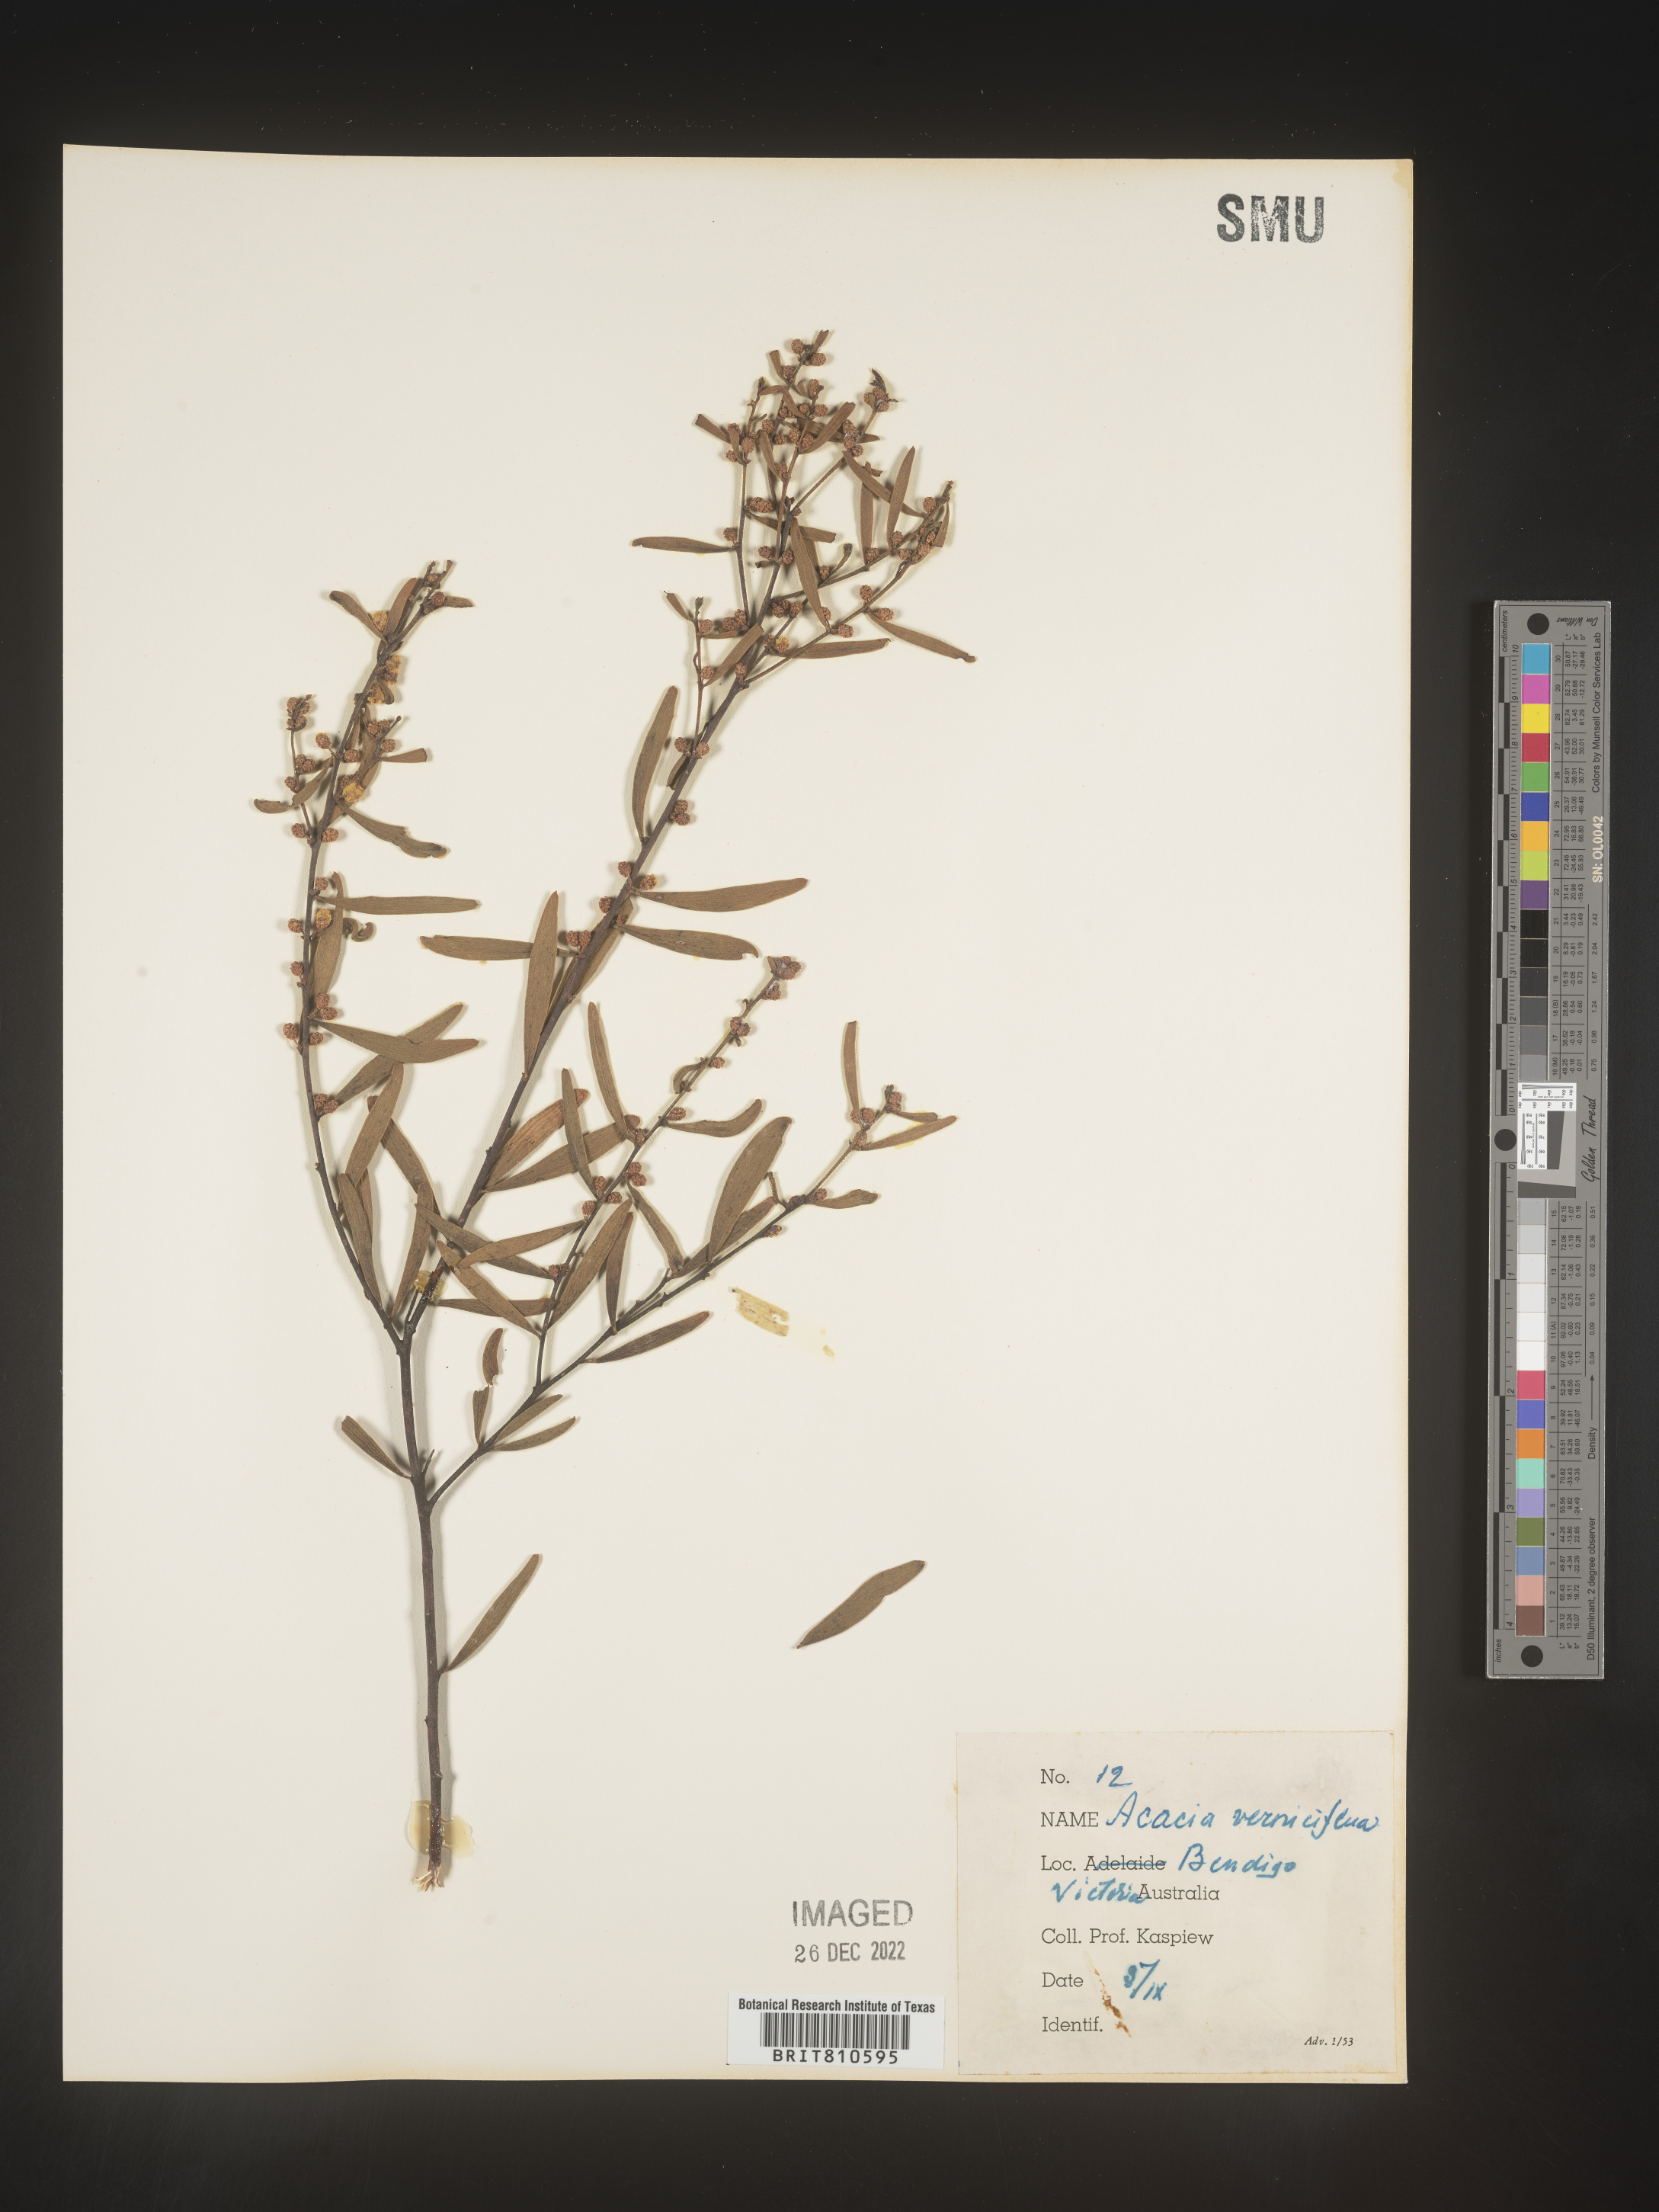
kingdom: Plantae
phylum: Tracheophyta
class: Magnoliopsida
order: Fabales
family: Fabaceae
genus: Acacia
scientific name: Acacia
